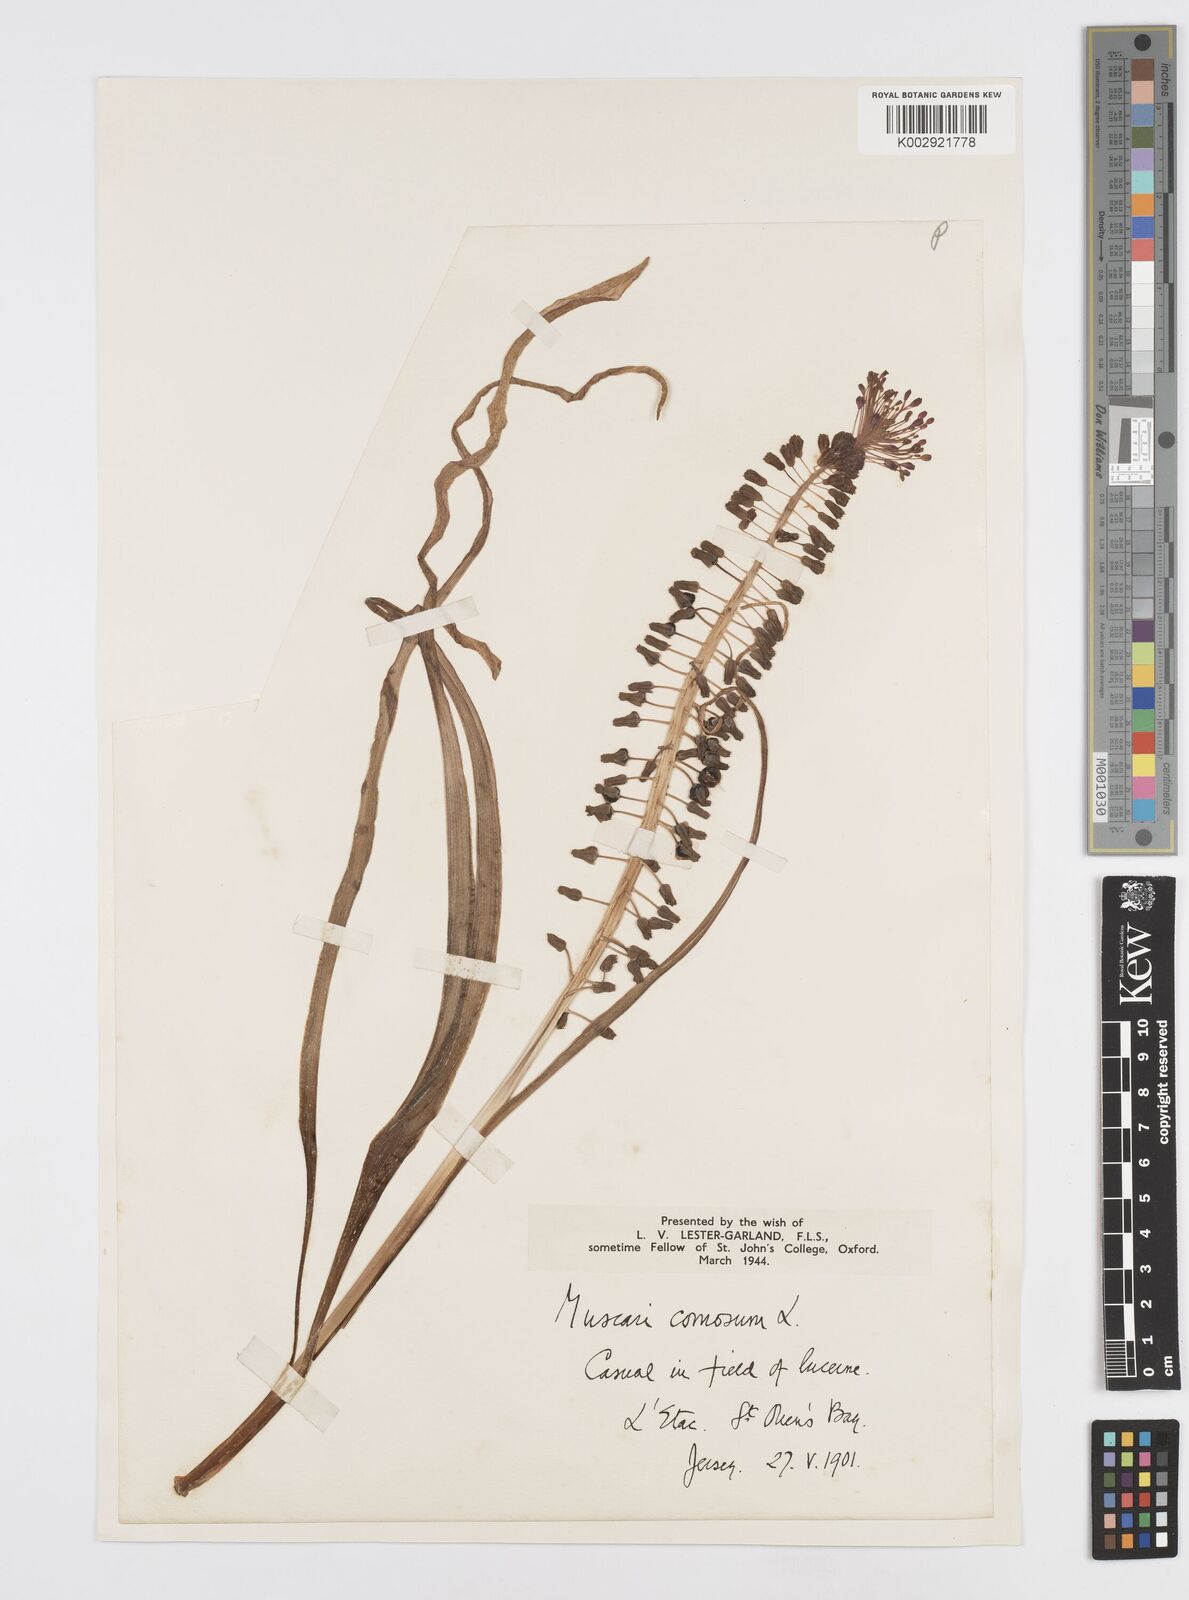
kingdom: Plantae
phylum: Tracheophyta
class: Liliopsida
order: Asparagales
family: Asparagaceae
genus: Muscari
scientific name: Muscari comosum
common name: Tassel hyacinth
